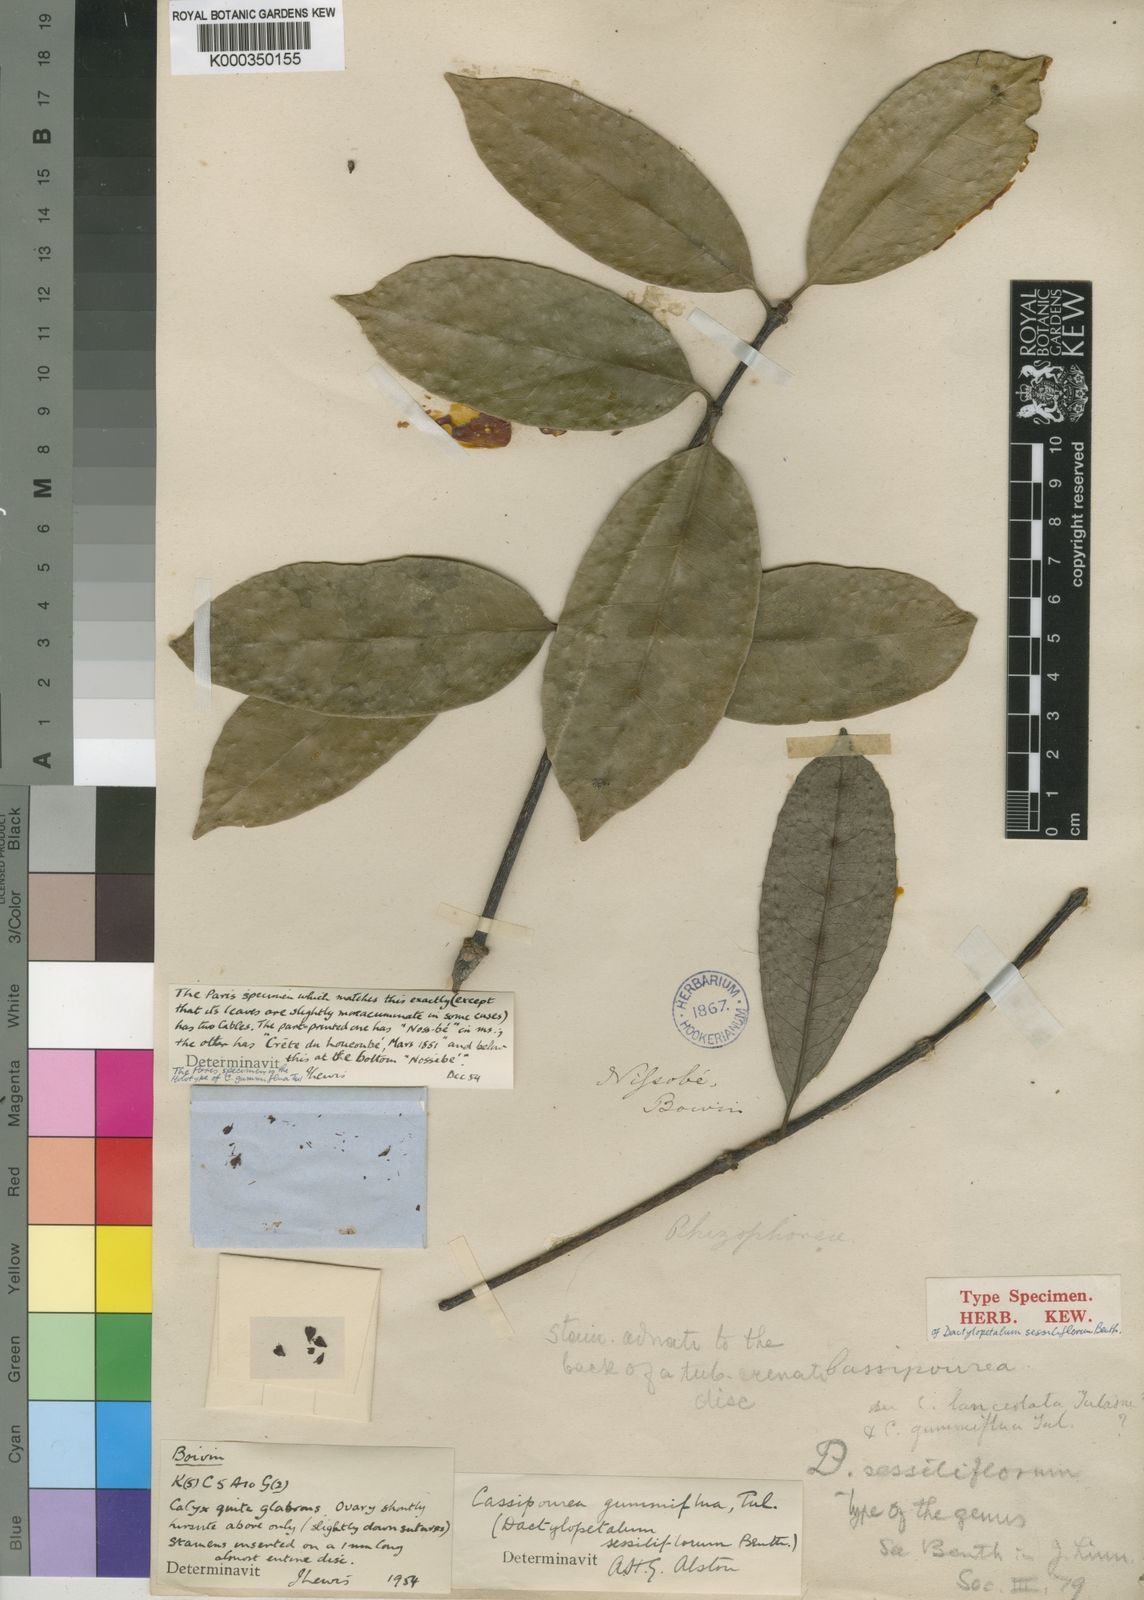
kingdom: Plantae
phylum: Tracheophyta
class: Magnoliopsida
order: Malpighiales
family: Rhizophoraceae
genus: Cassipourea
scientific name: Cassipourea gummiflua
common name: Large-leaved onionwood
